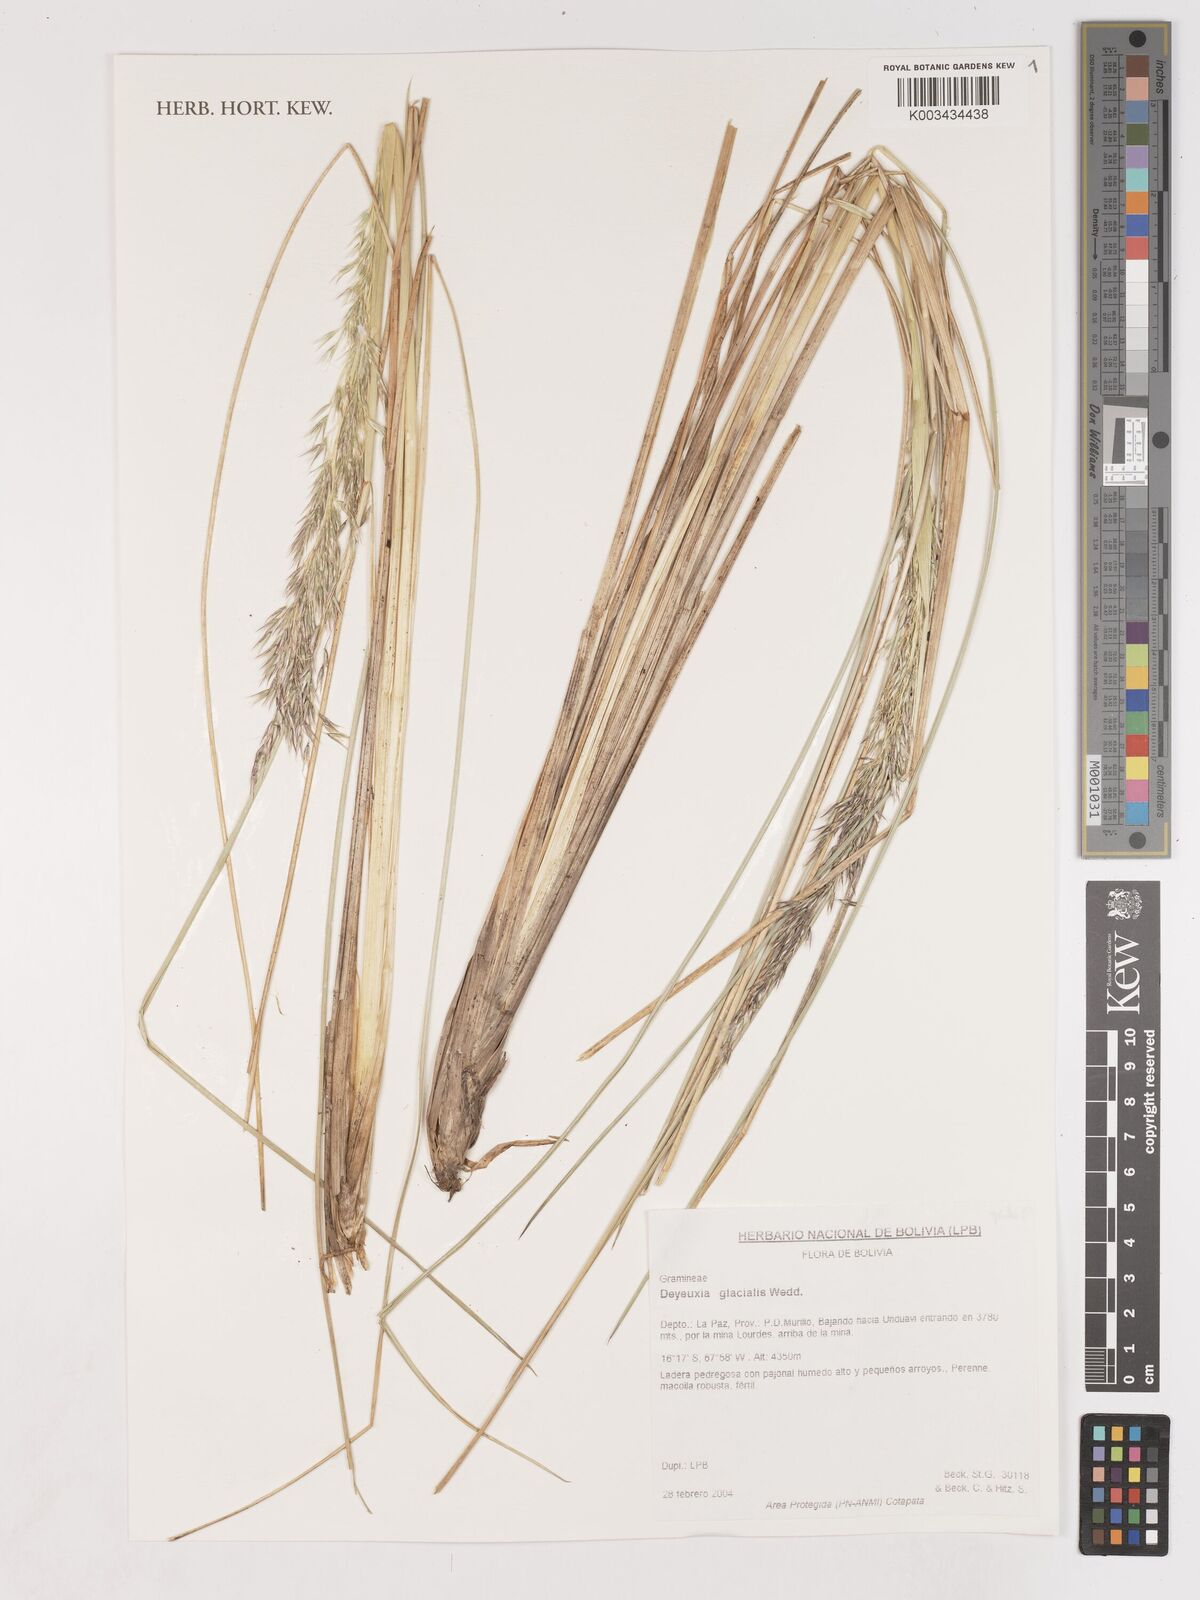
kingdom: Plantae
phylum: Tracheophyta
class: Liliopsida
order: Poales
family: Poaceae
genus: Cinnagrostis
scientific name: Cinnagrostis glacialis
